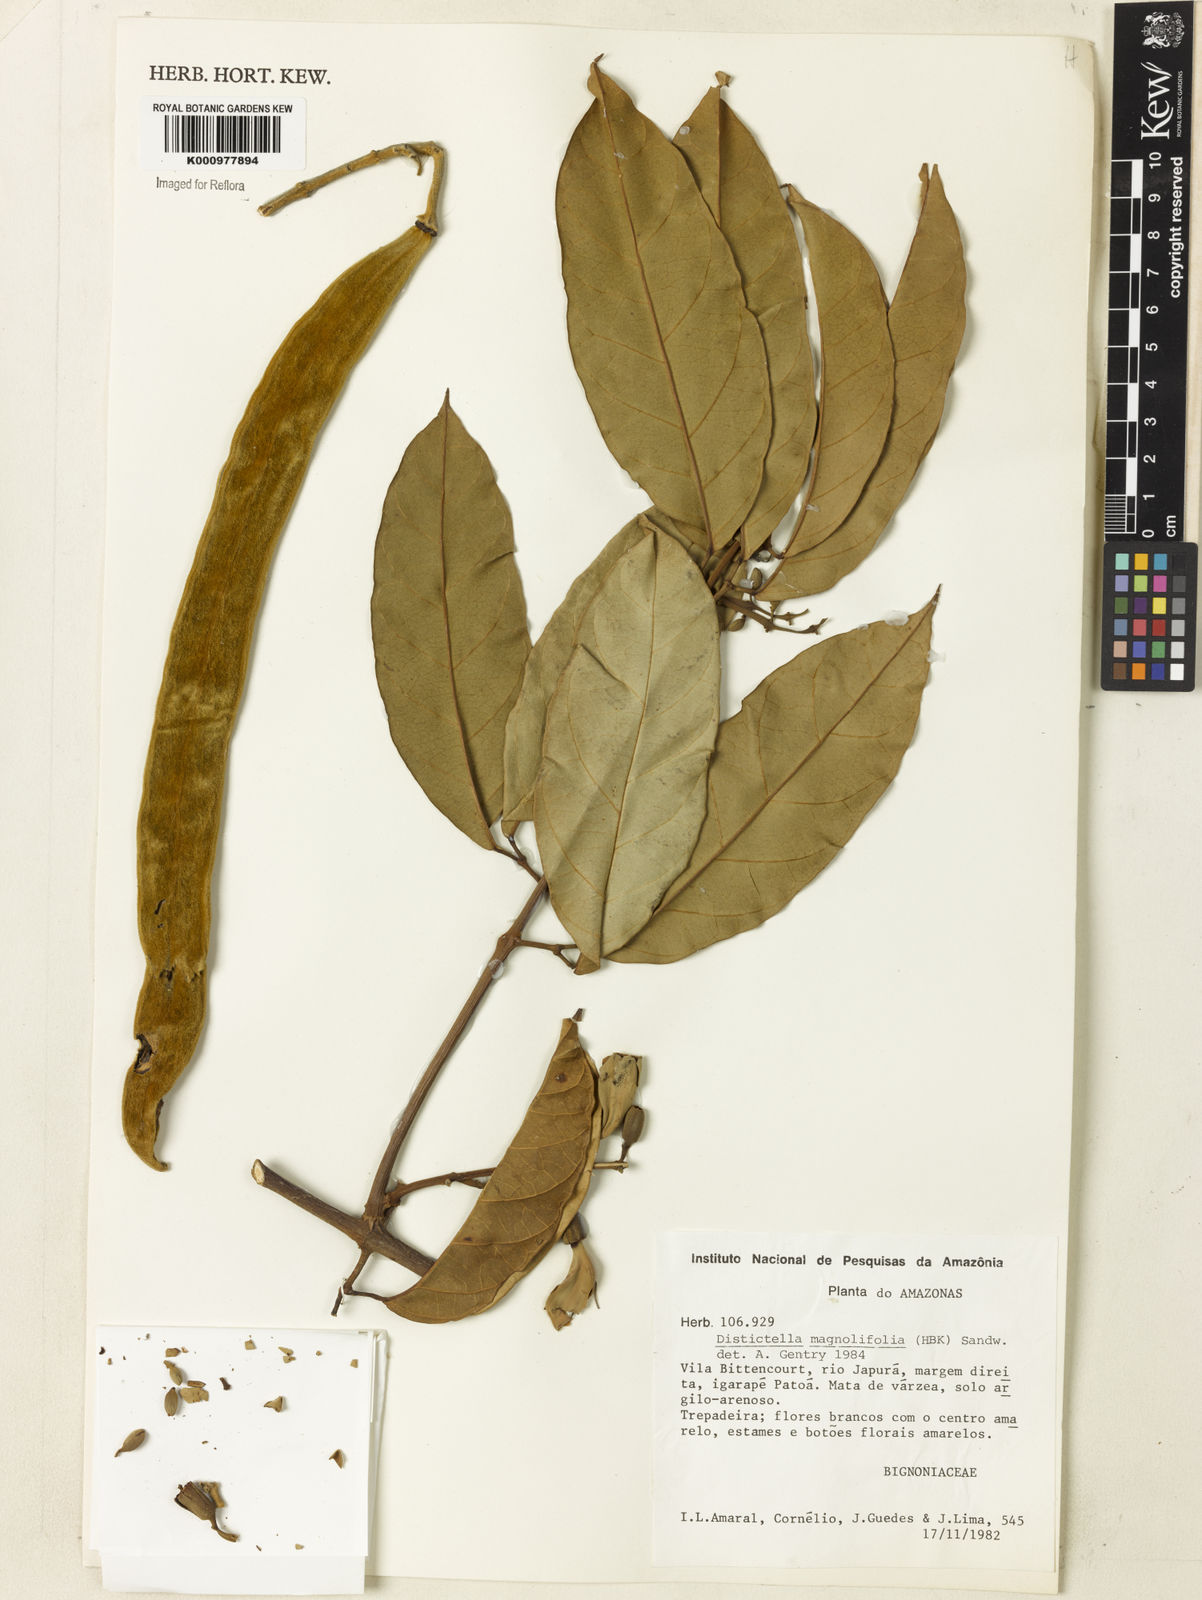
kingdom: Plantae
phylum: Tracheophyta
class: Magnoliopsida
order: Lamiales
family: Bignoniaceae
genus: Amphilophium
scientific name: Amphilophium
